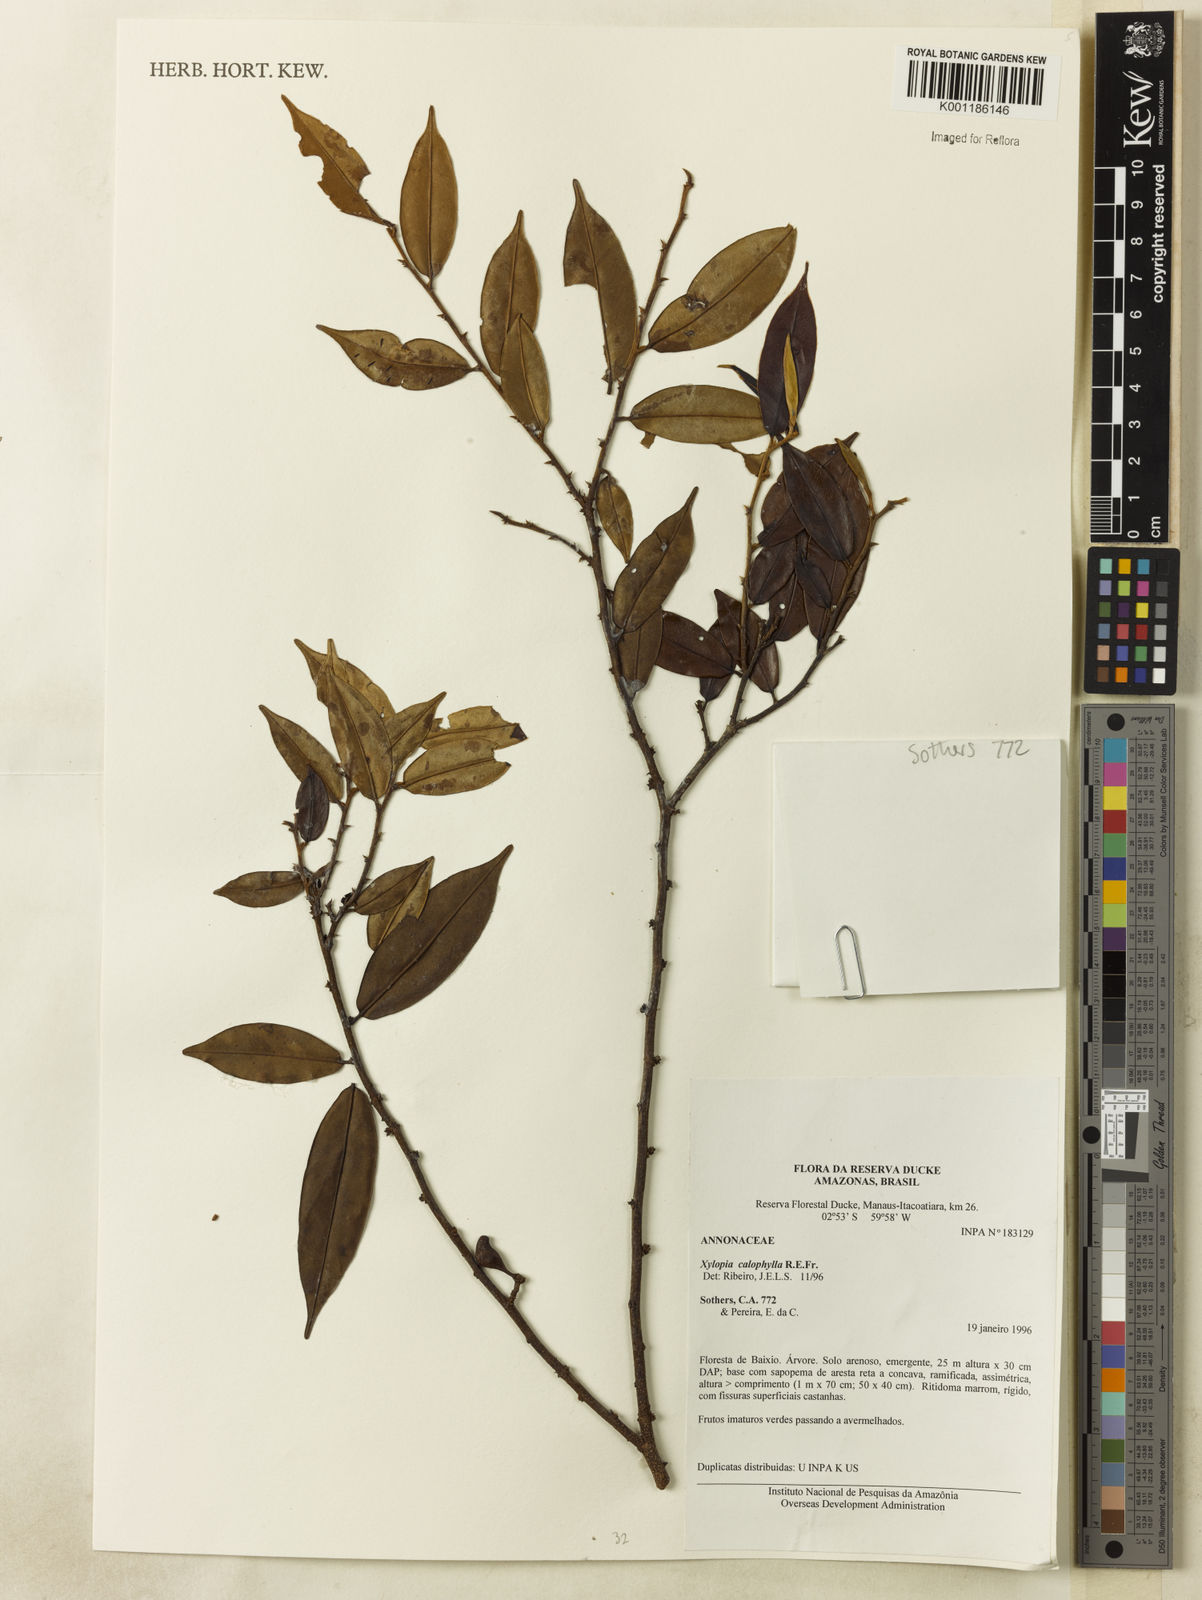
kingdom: Plantae
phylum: Tracheophyta
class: Magnoliopsida
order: Magnoliales
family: Annonaceae
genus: Xylopia
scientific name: Xylopia calophylla
